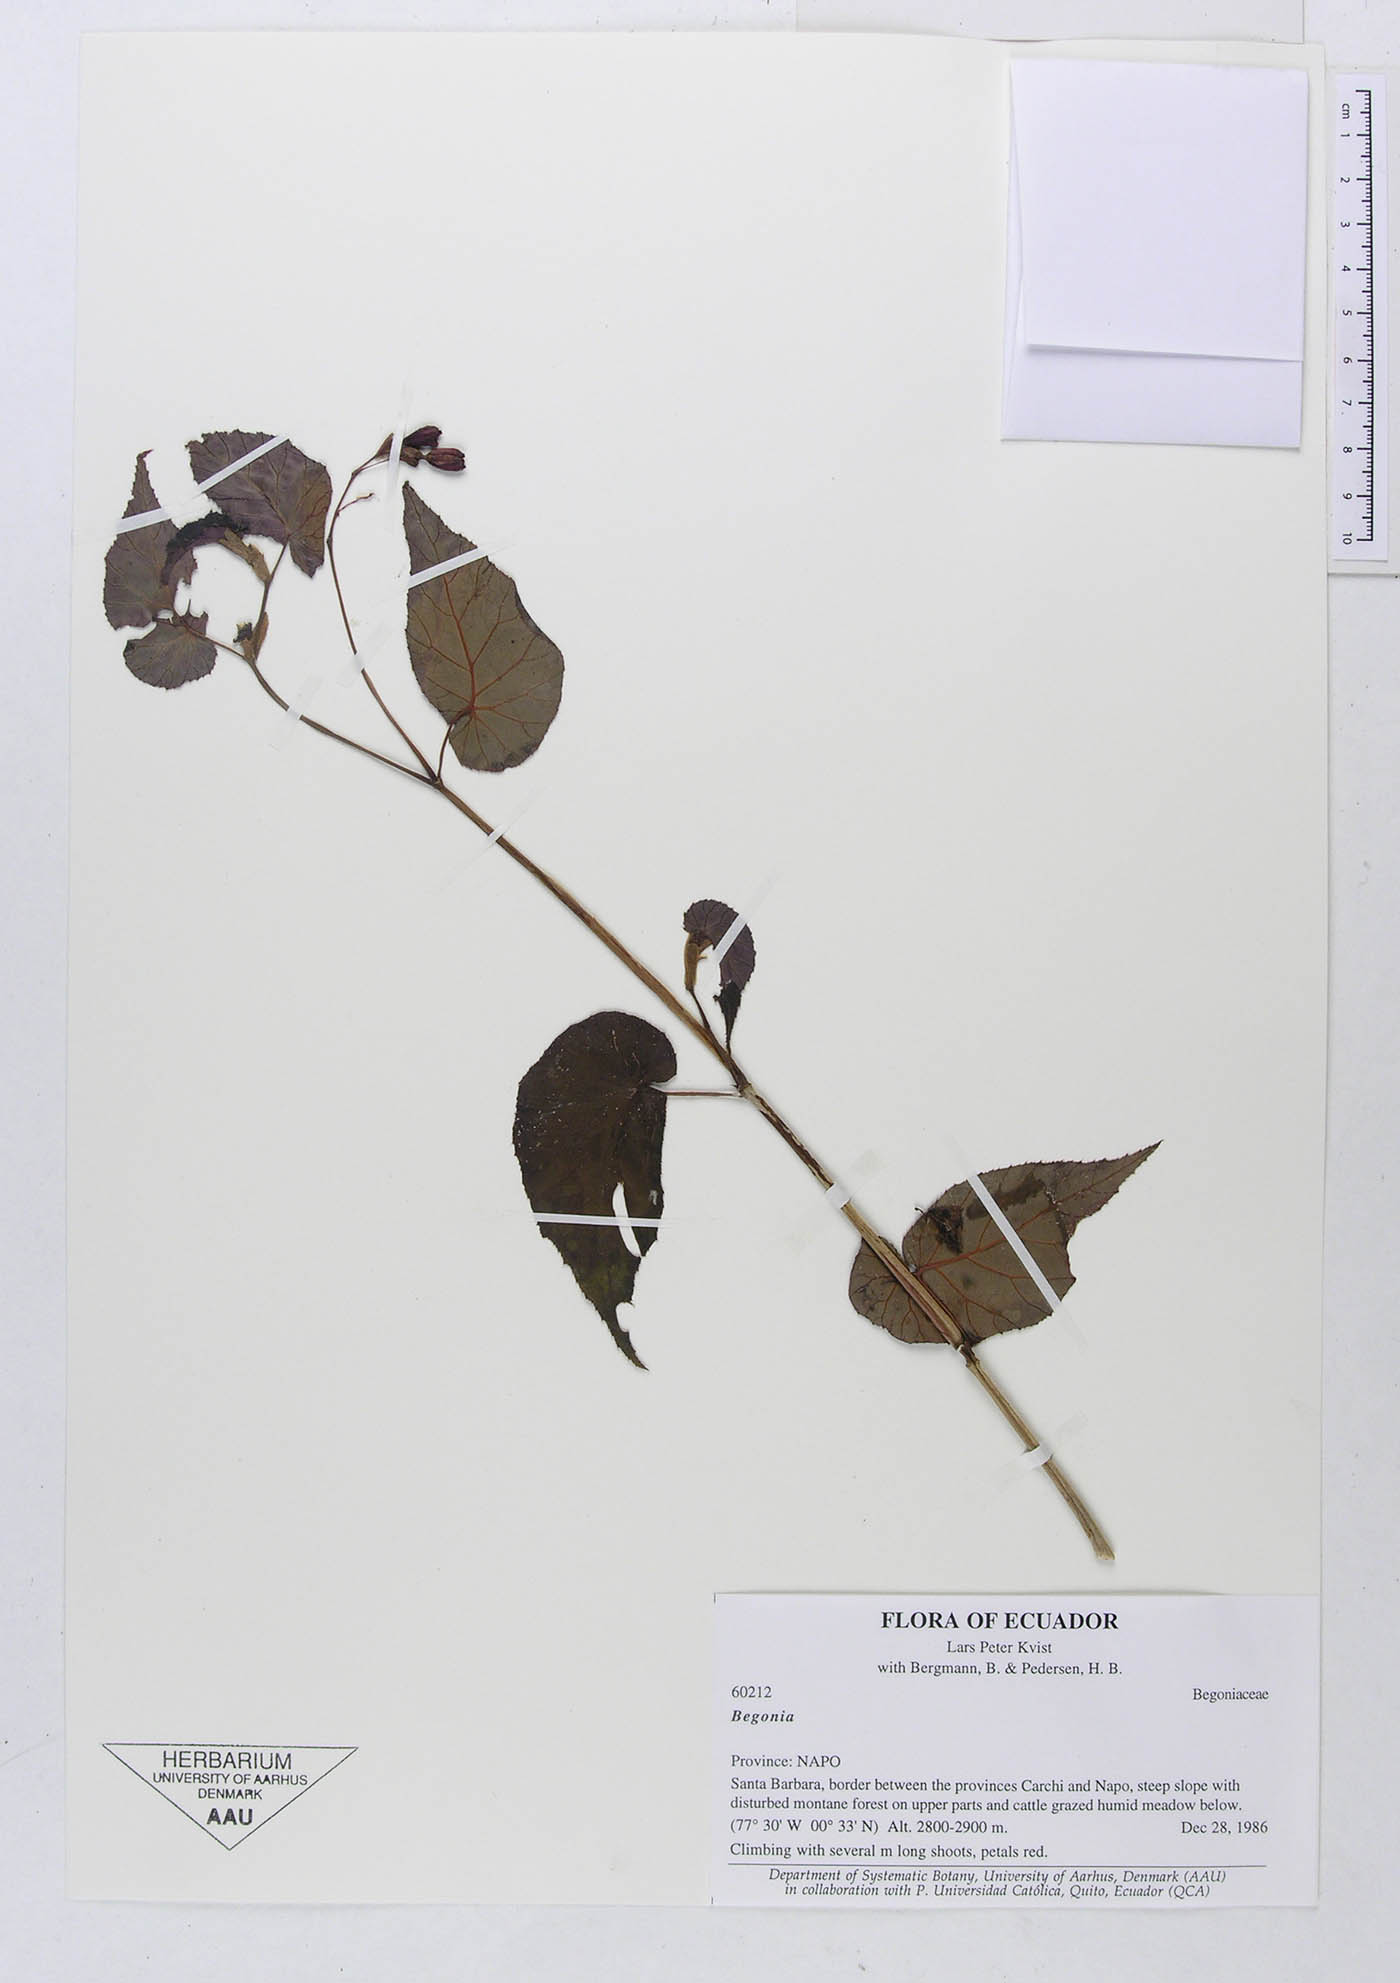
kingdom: Plantae
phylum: Tracheophyta
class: Magnoliopsida
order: Cucurbitales
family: Begoniaceae
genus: Begonia
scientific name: Begonia fuchsiiflora
